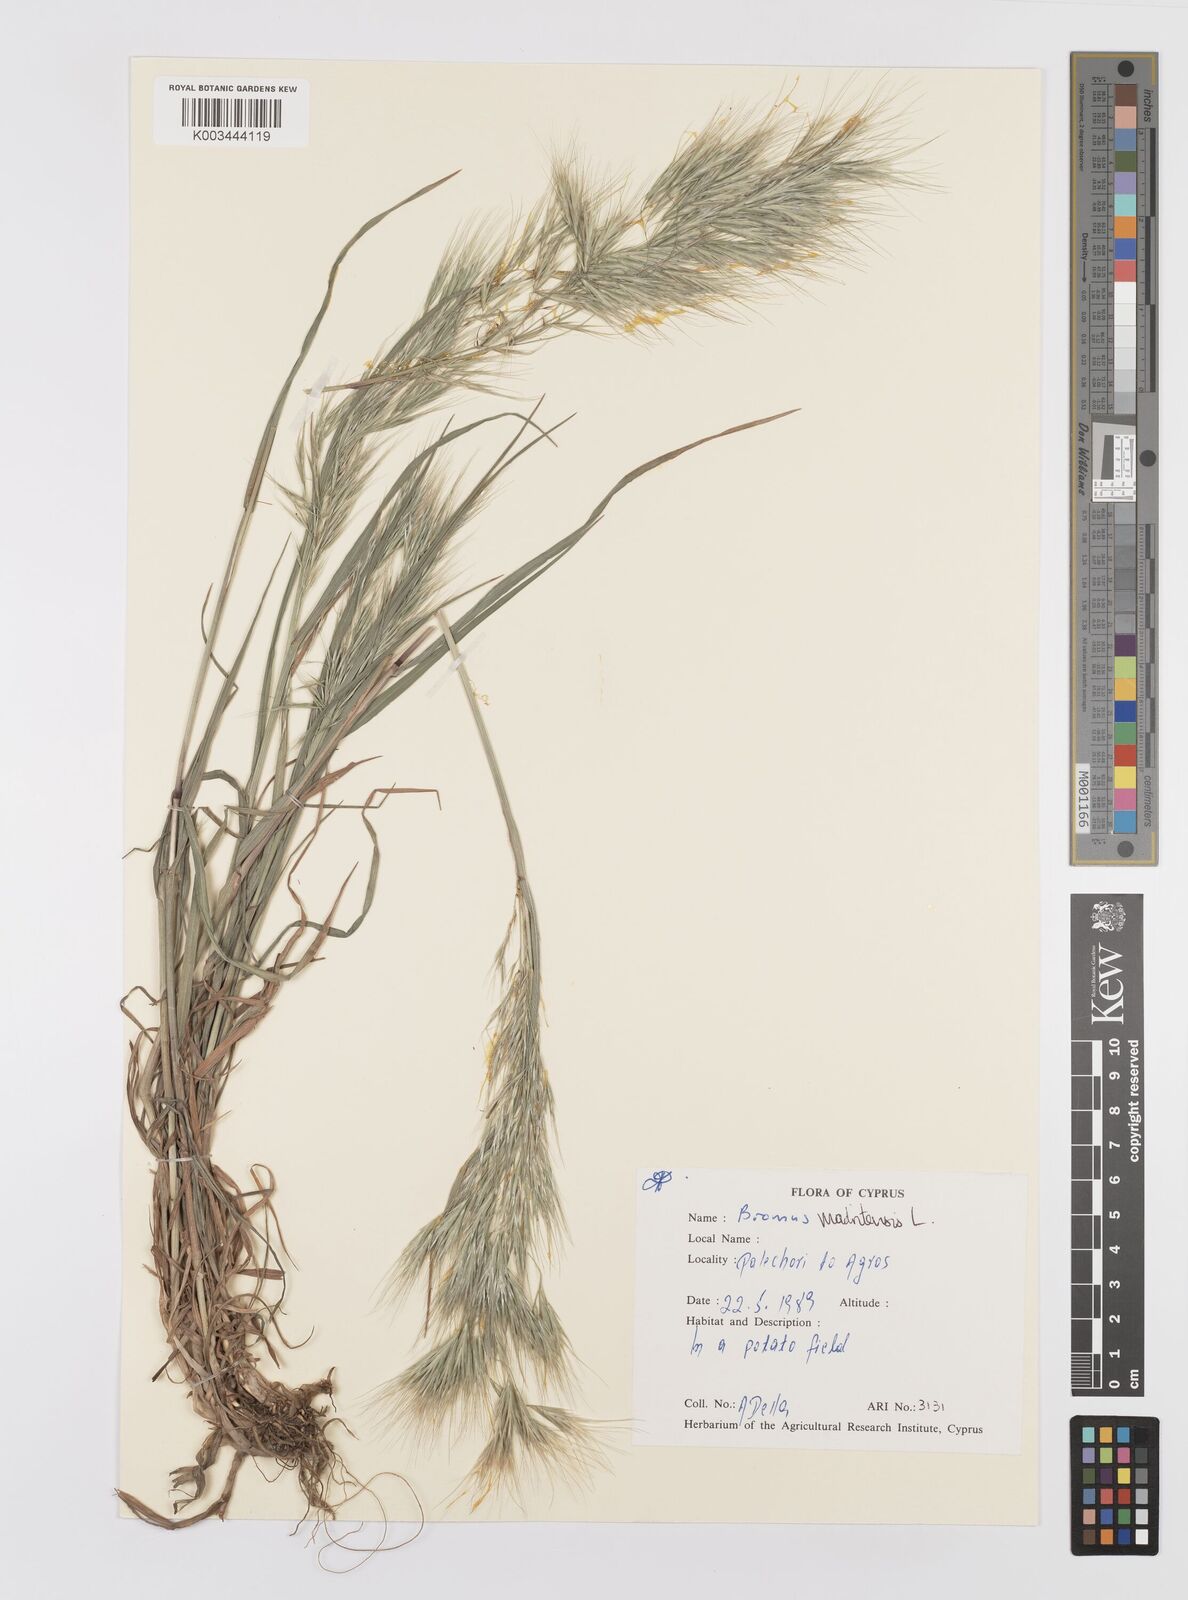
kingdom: Plantae
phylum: Tracheophyta
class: Liliopsida
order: Poales
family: Poaceae
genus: Bromus
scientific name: Bromus madritensis
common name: Compact brome
